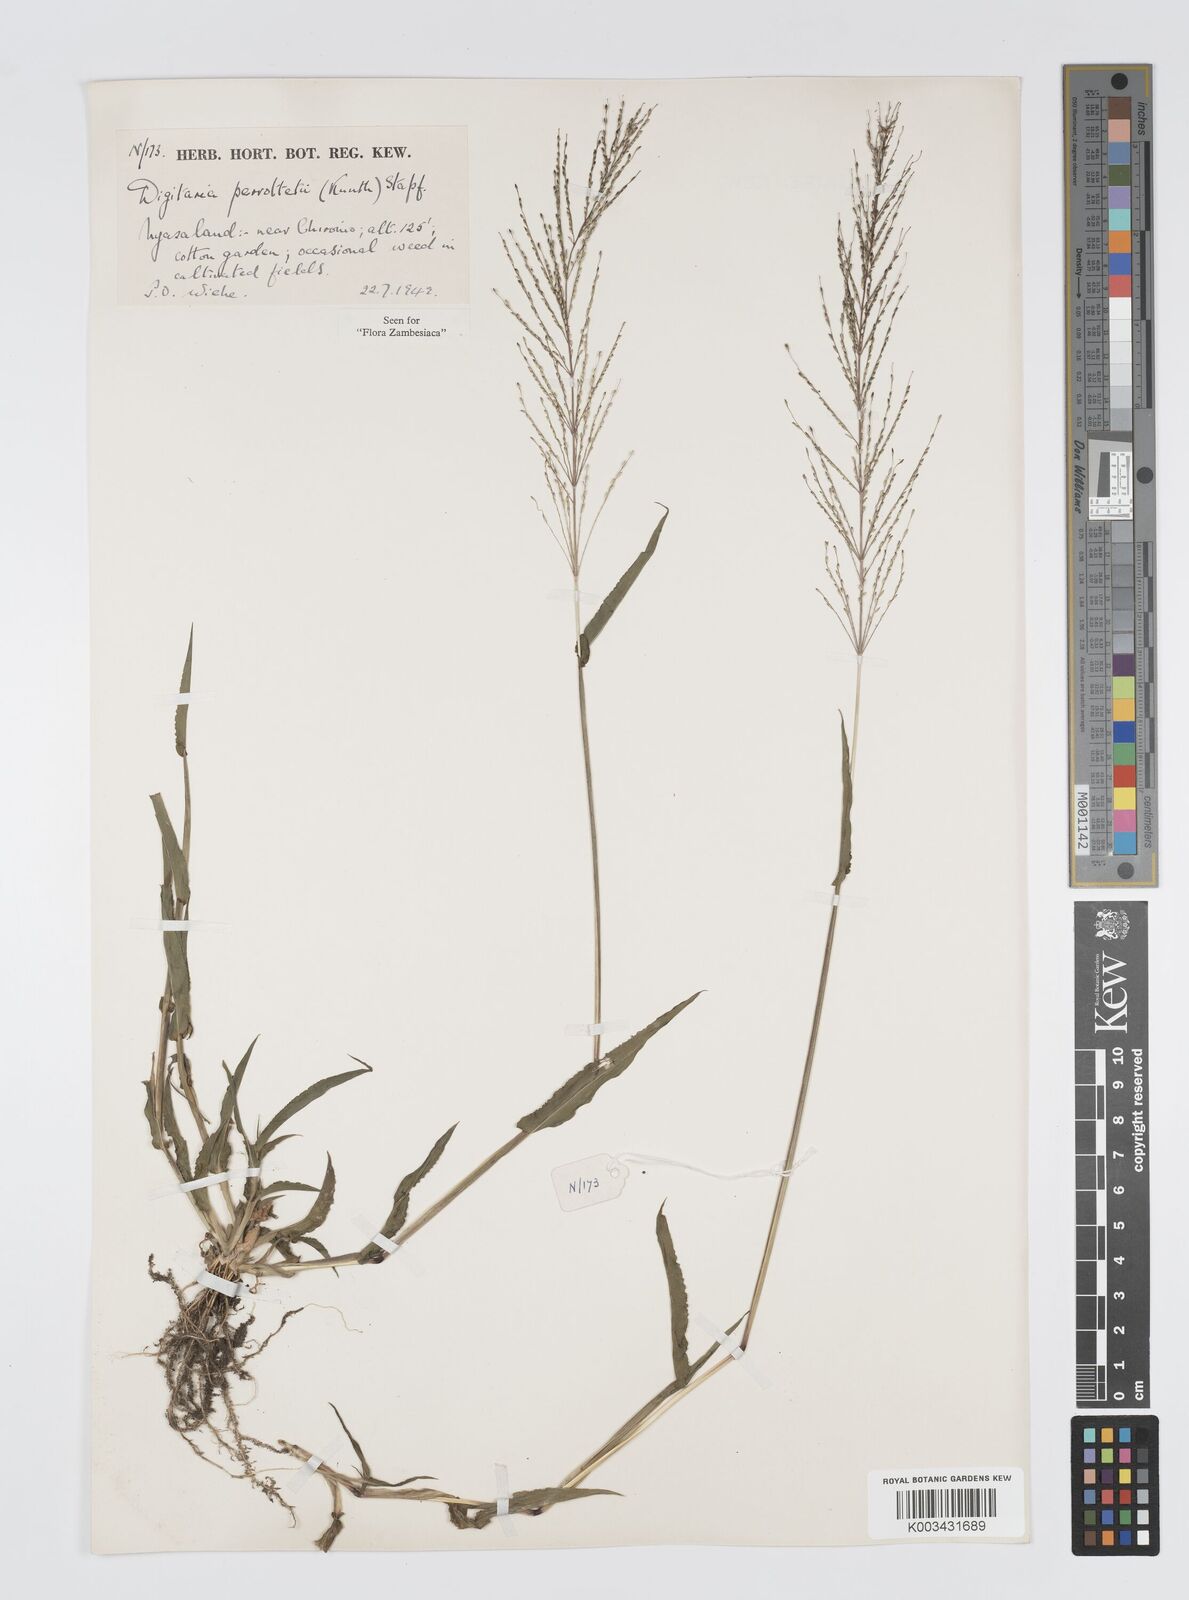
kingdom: Plantae
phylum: Tracheophyta
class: Liliopsida
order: Poales
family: Poaceae
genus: Digitaria
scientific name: Digitaria perrottetii
